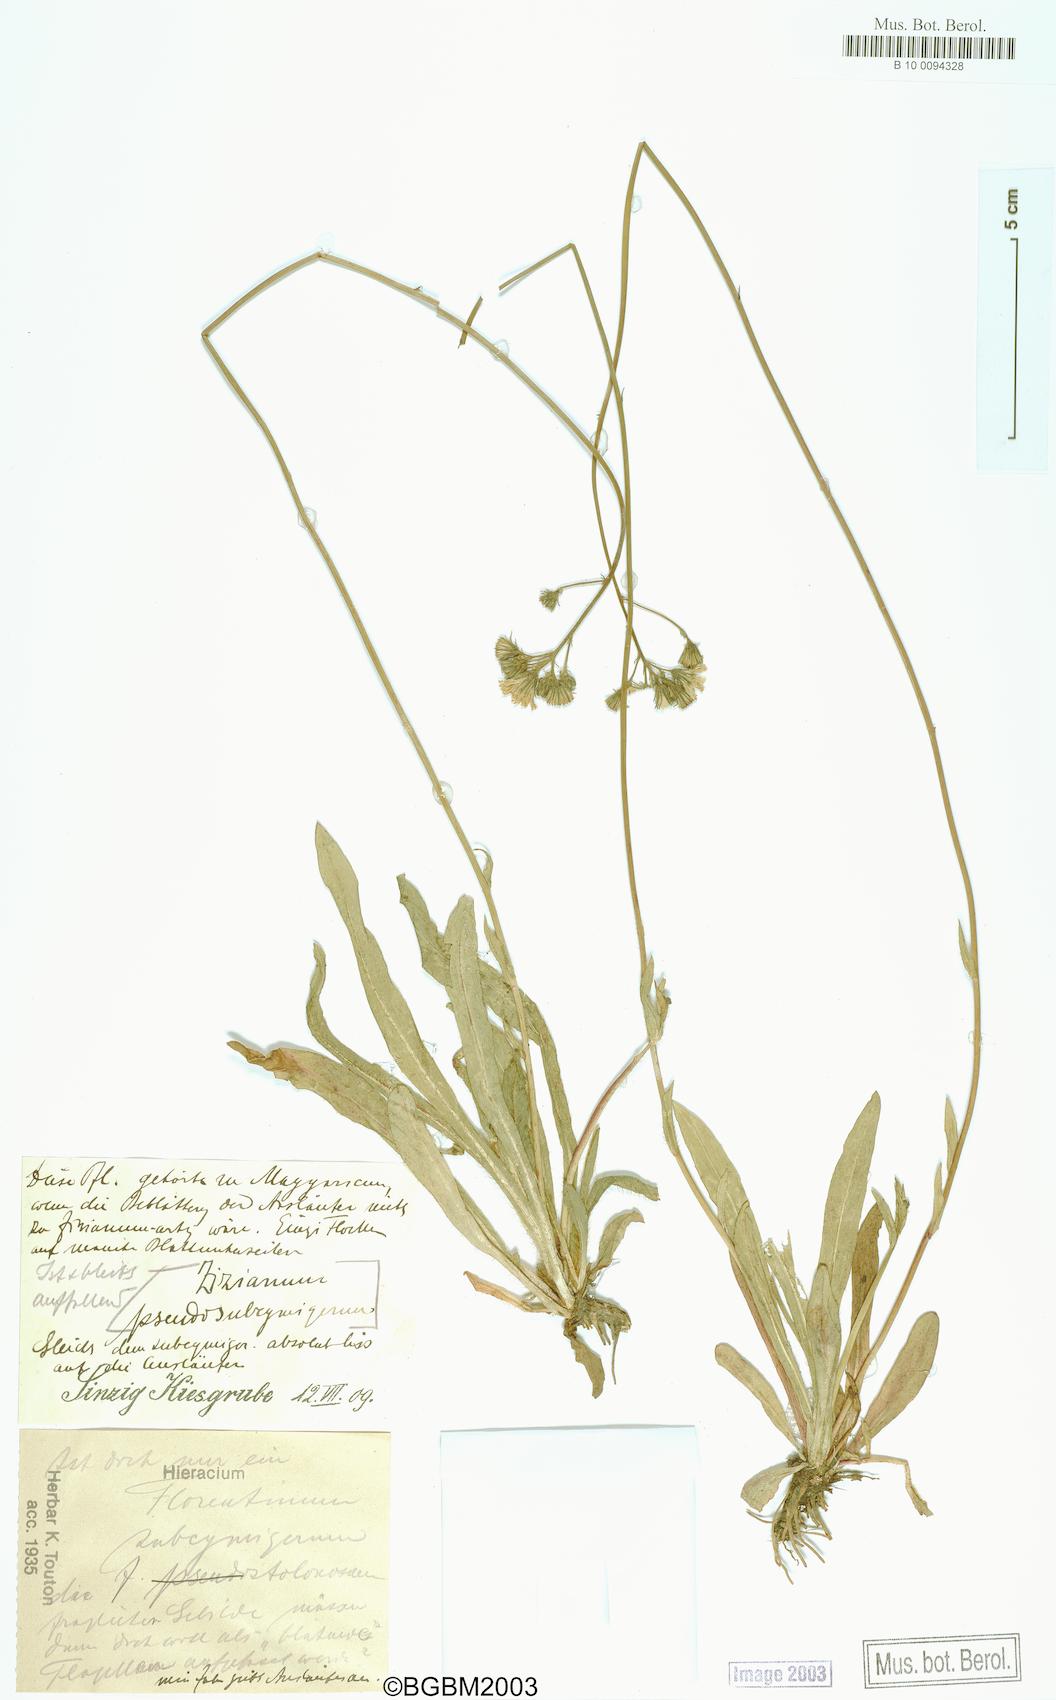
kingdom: Plantae
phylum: Tracheophyta
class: Magnoliopsida
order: Asterales
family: Asteraceae
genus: Hieracium
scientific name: Hieracium florentinum
